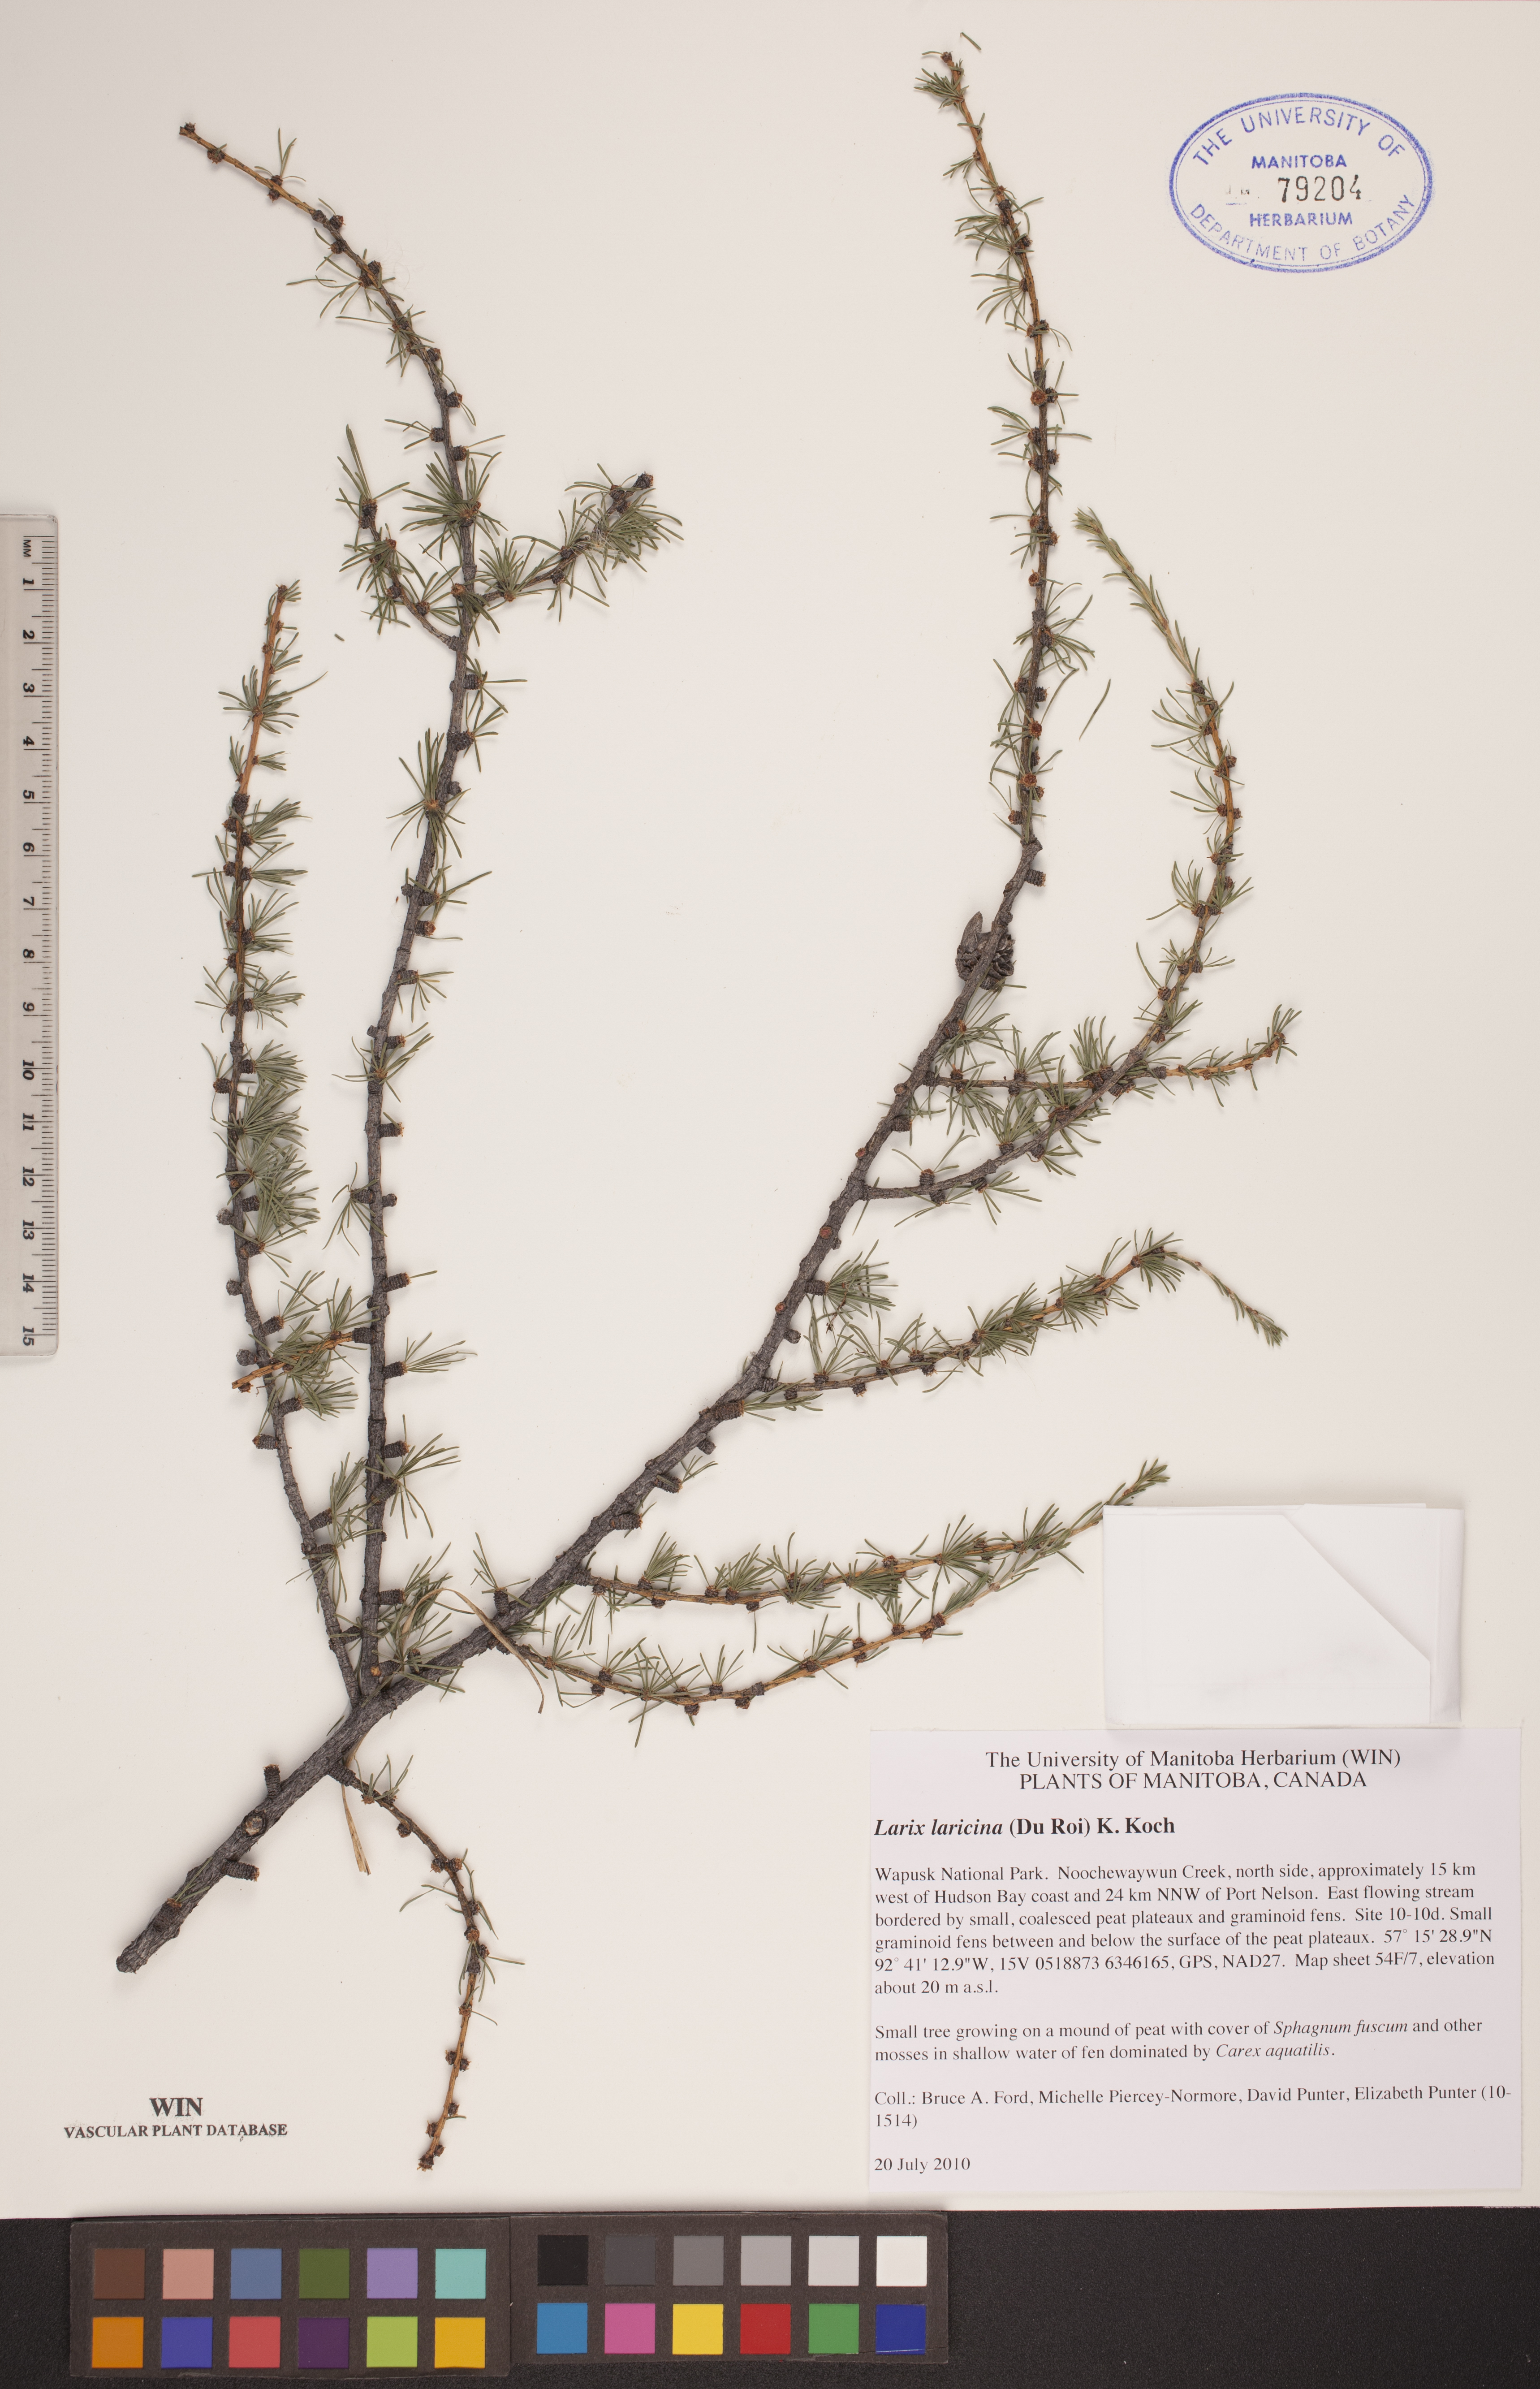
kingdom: Plantae
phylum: Tracheophyta
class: Pinopsida
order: Pinales
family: Pinaceae
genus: Larix
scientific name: Larix laricina
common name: American larch
